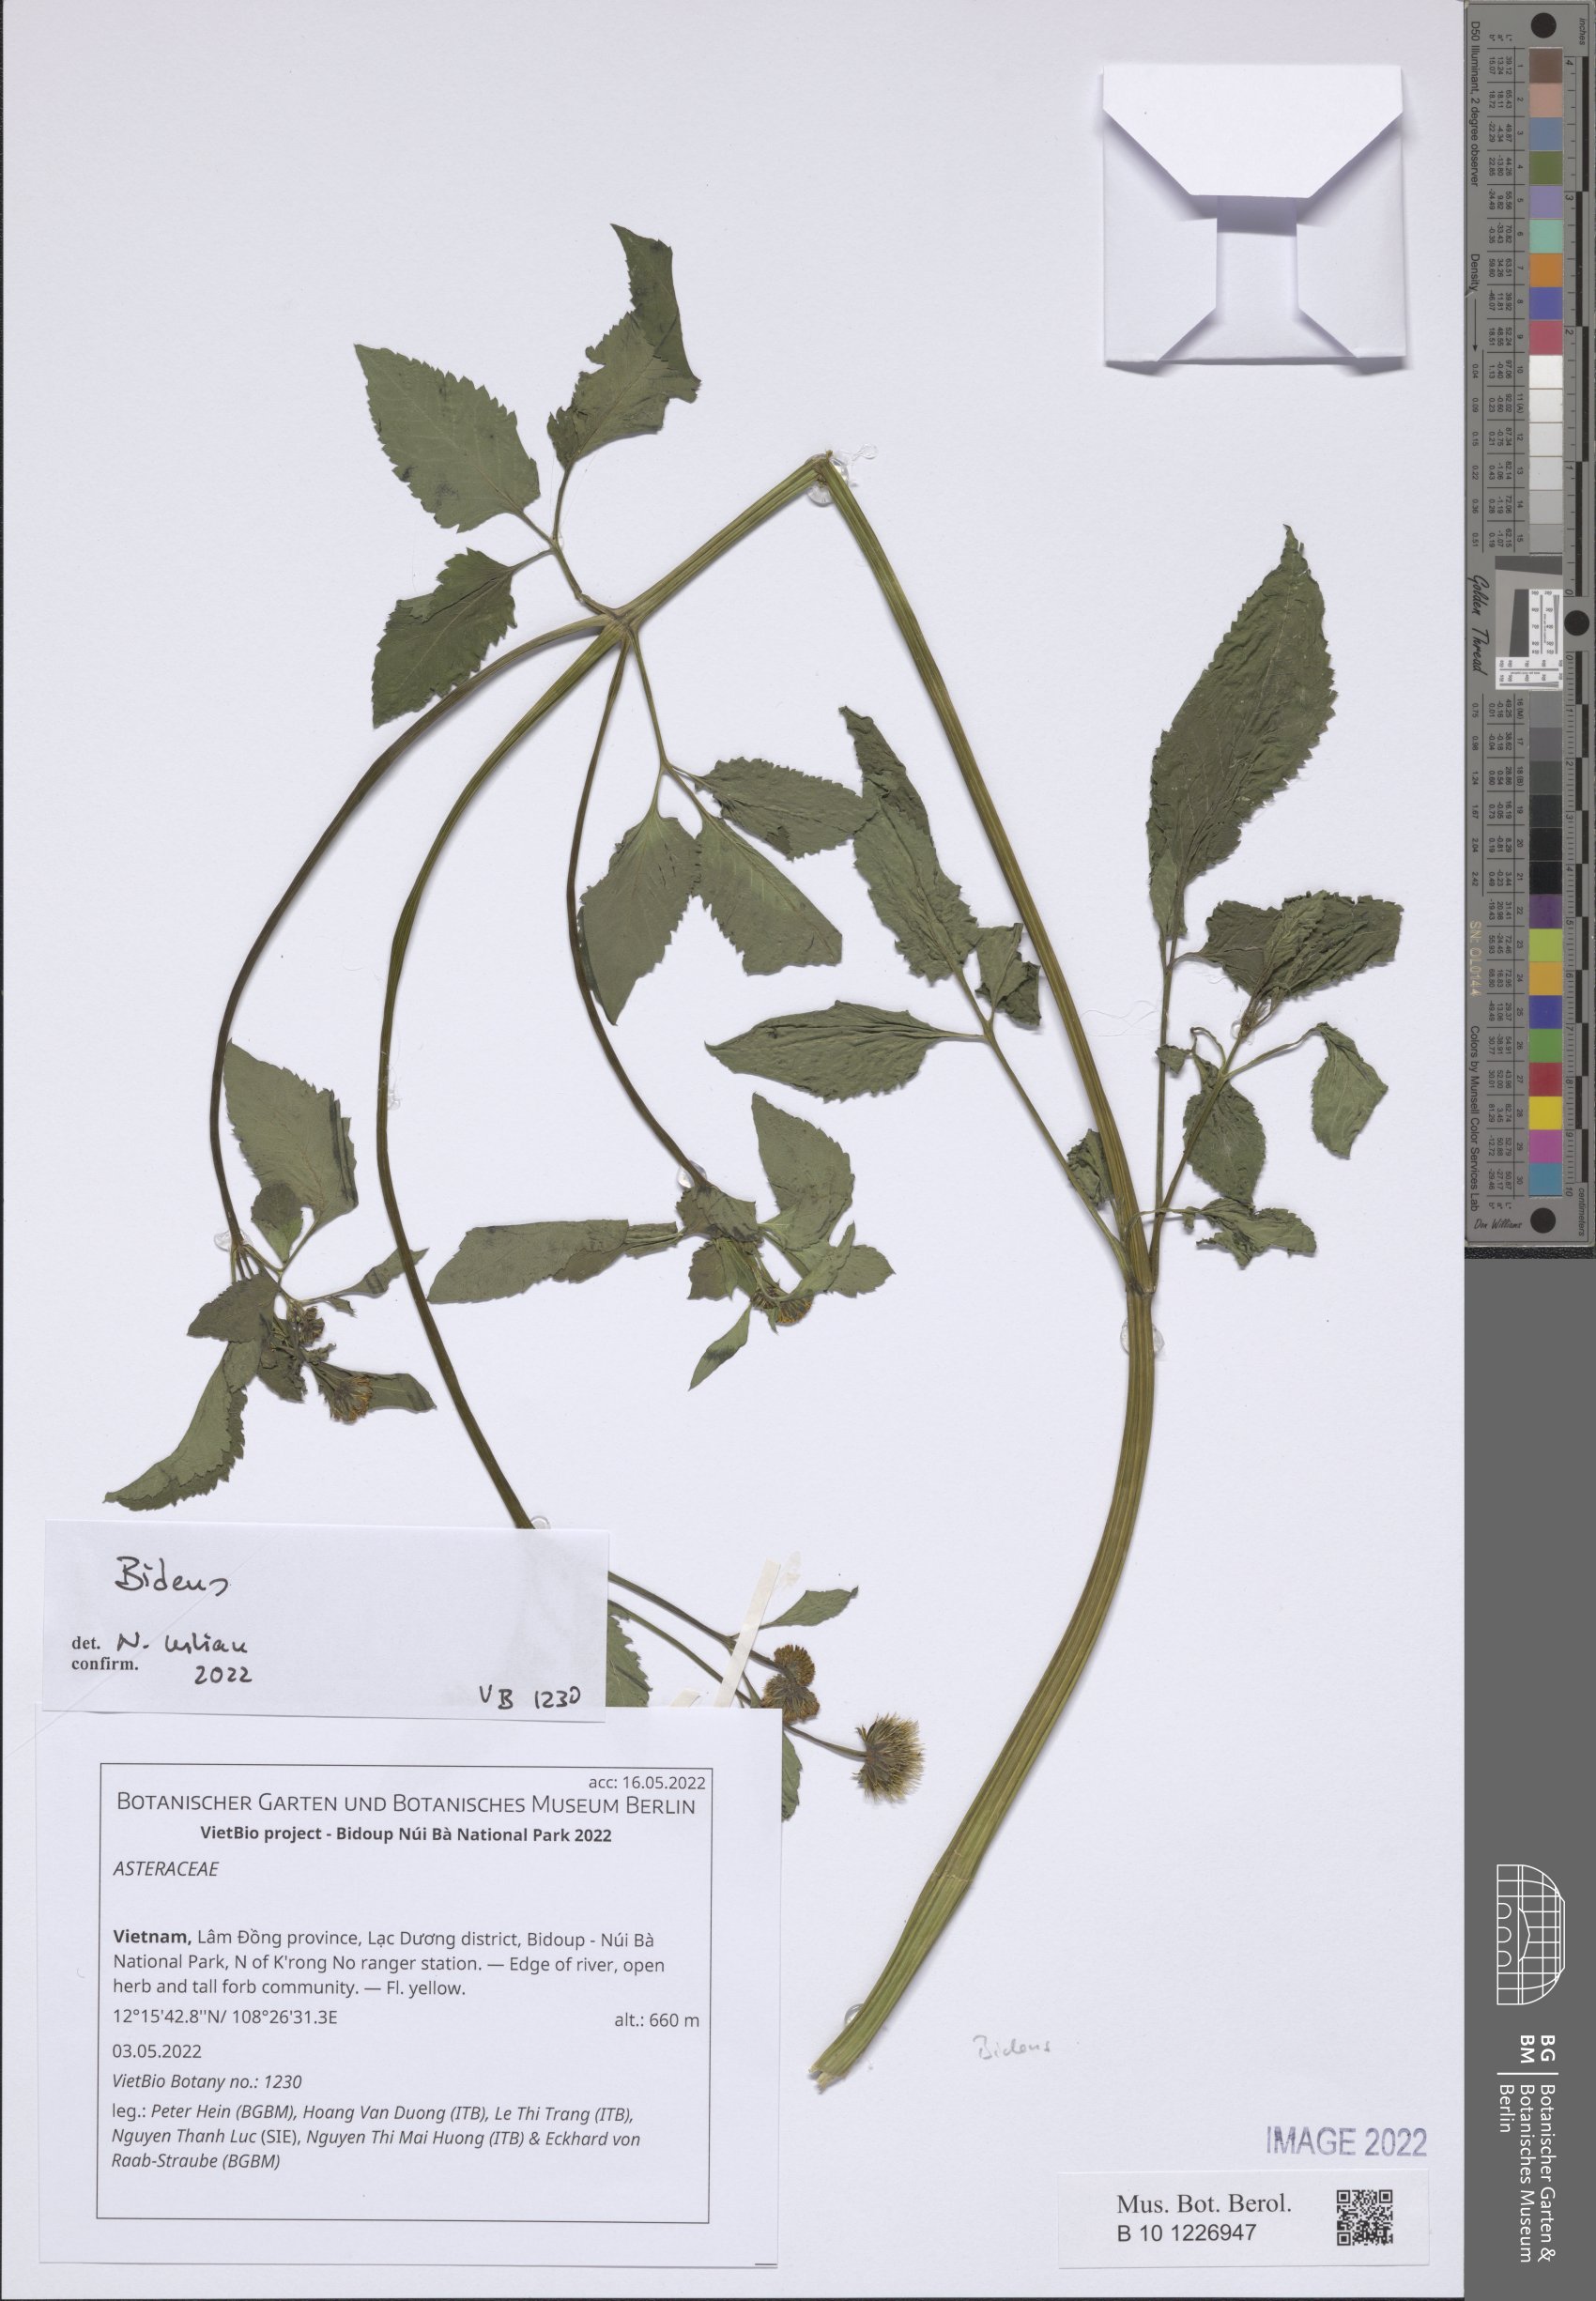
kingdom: Plantae
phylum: Tracheophyta
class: Magnoliopsida
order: Asterales
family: Asteraceae
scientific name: Asteraceae
